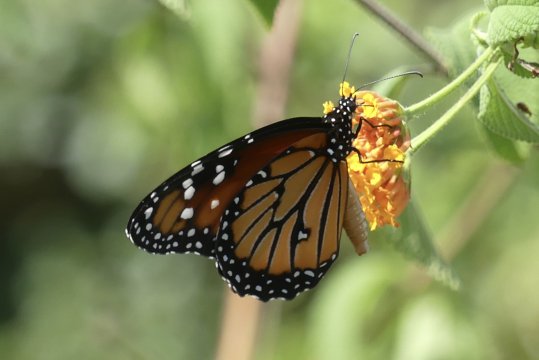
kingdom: Animalia
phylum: Arthropoda
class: Insecta
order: Lepidoptera
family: Nymphalidae
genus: Danaus
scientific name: Danaus gilippus
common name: Queen
